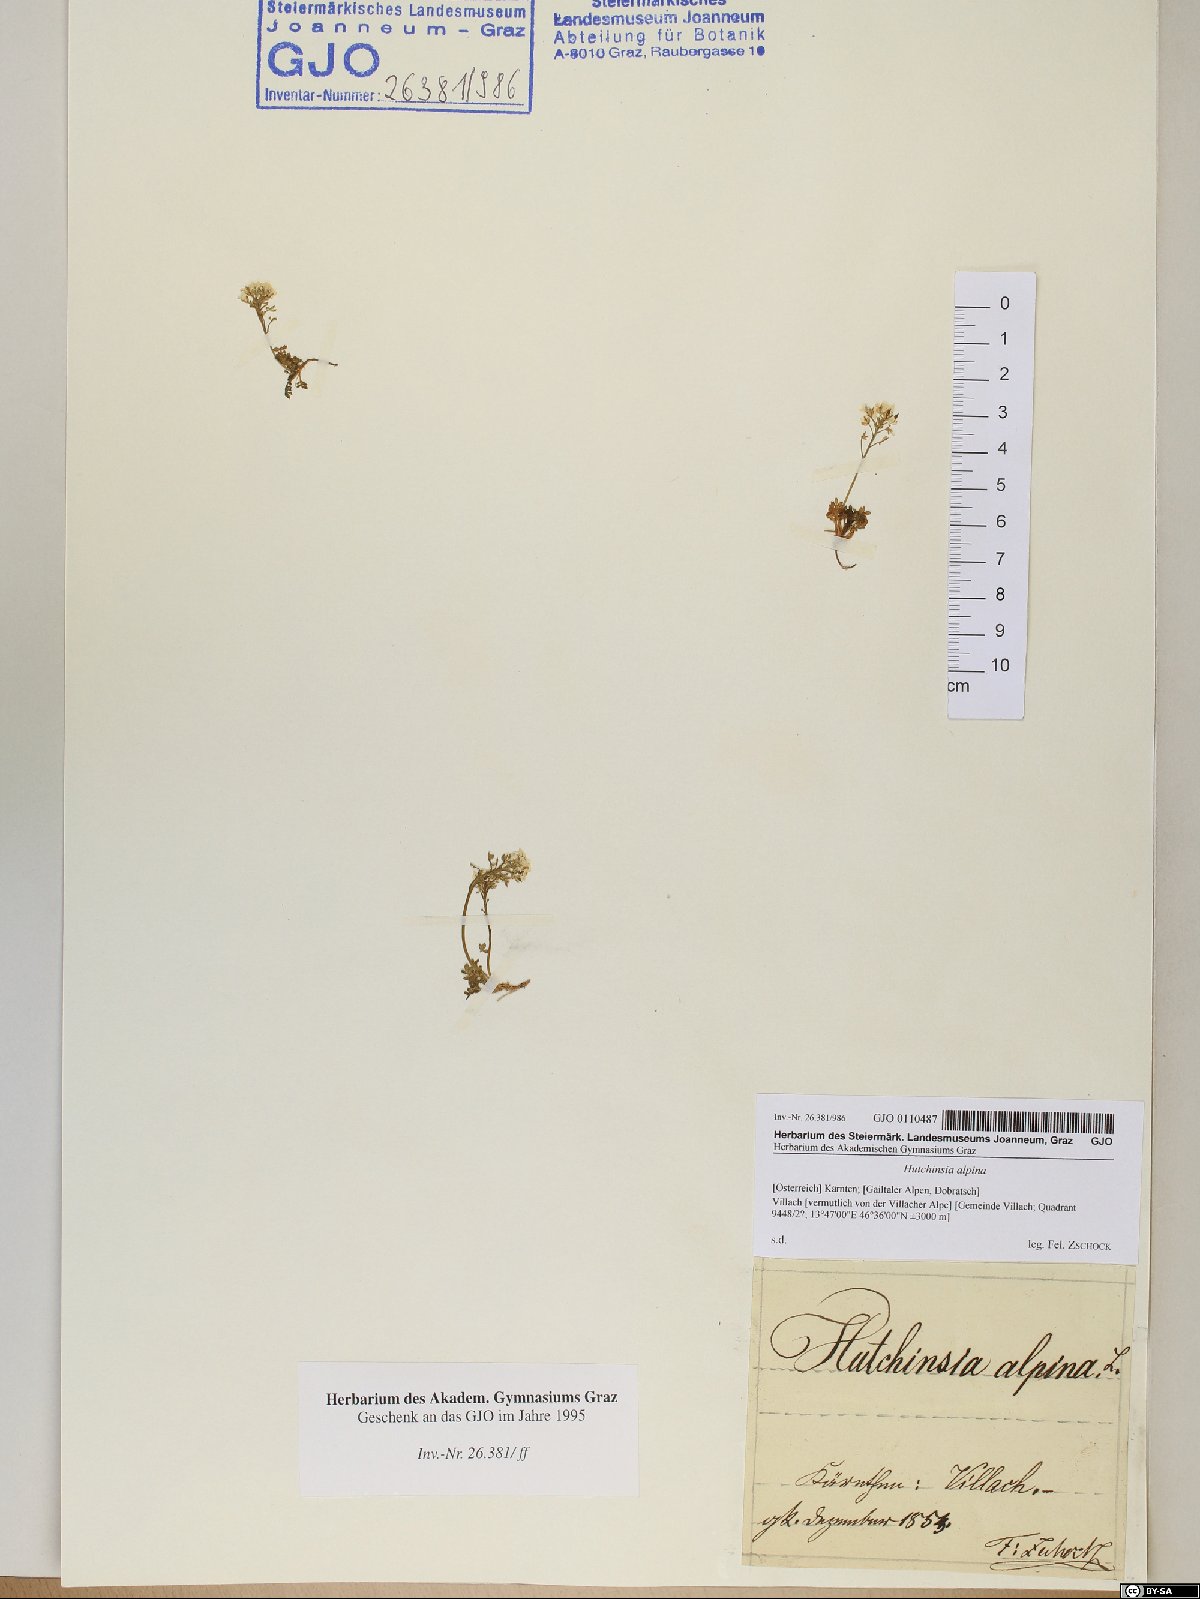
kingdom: Plantae
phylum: Tracheophyta
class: Magnoliopsida
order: Brassicales
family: Brassicaceae
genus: Hornungia
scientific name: Hornungia alpina
